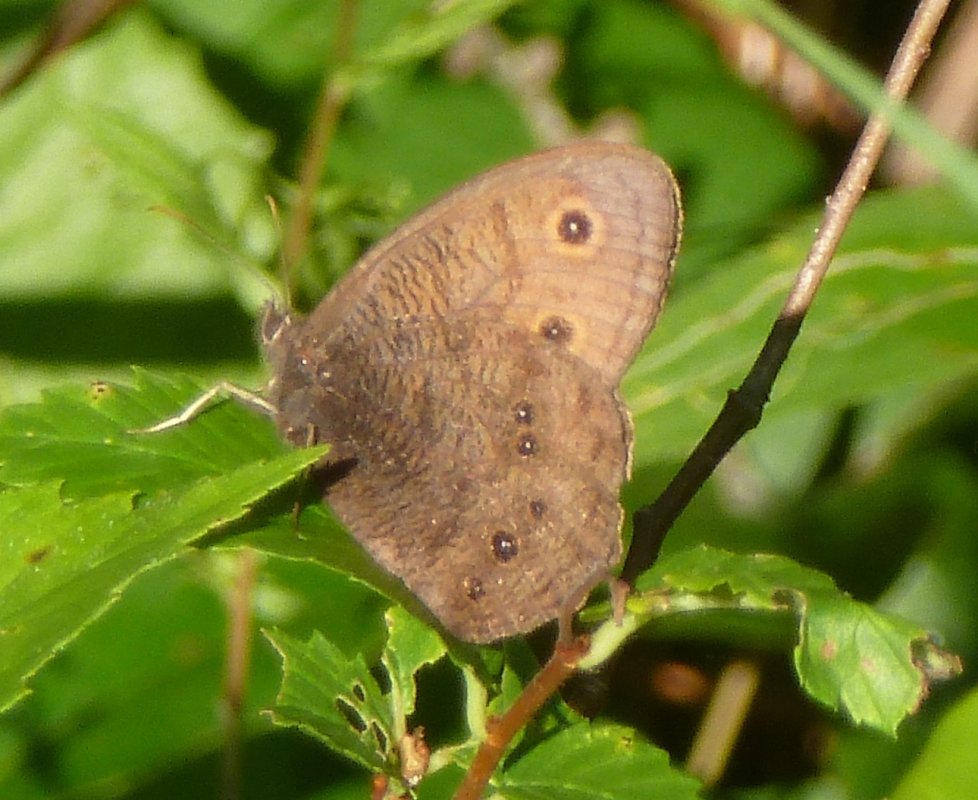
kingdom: Animalia
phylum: Arthropoda
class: Insecta
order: Lepidoptera
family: Nymphalidae
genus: Cercyonis
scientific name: Cercyonis pegala
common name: Common Wood-Nymph
